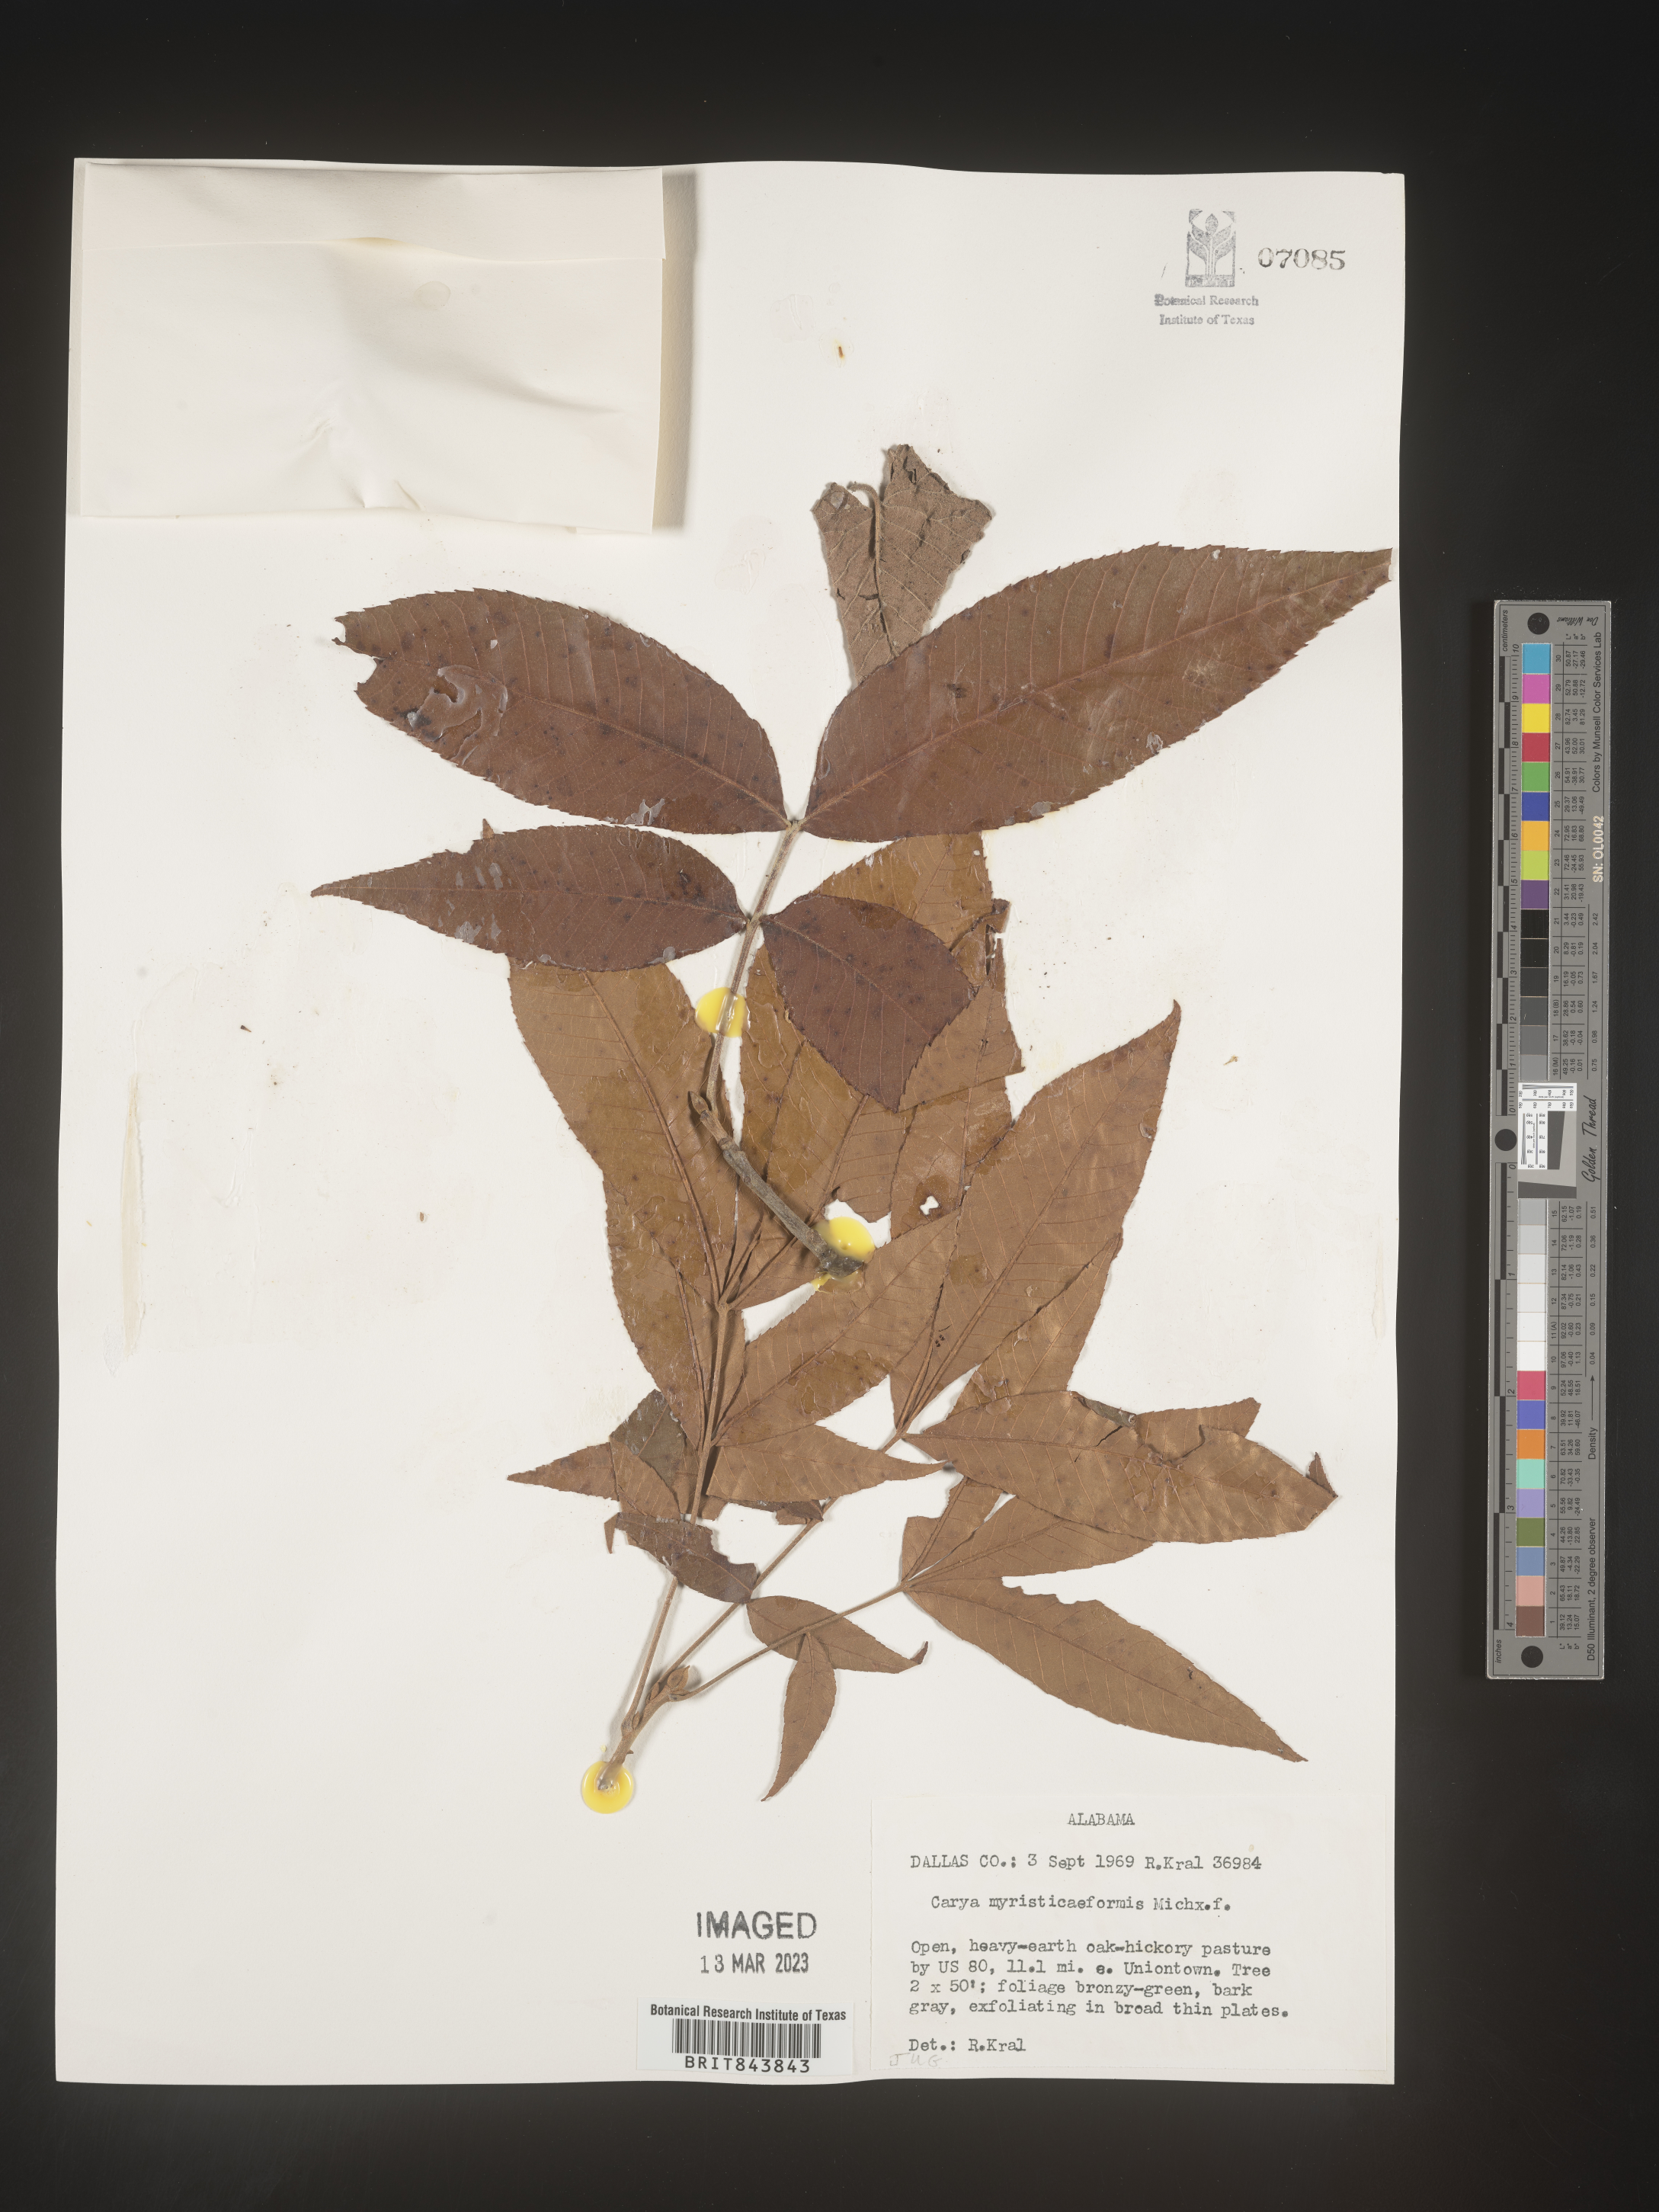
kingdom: Plantae
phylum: Tracheophyta
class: Magnoliopsida
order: Fagales
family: Juglandaceae
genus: Carya
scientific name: Carya myristiciformis
